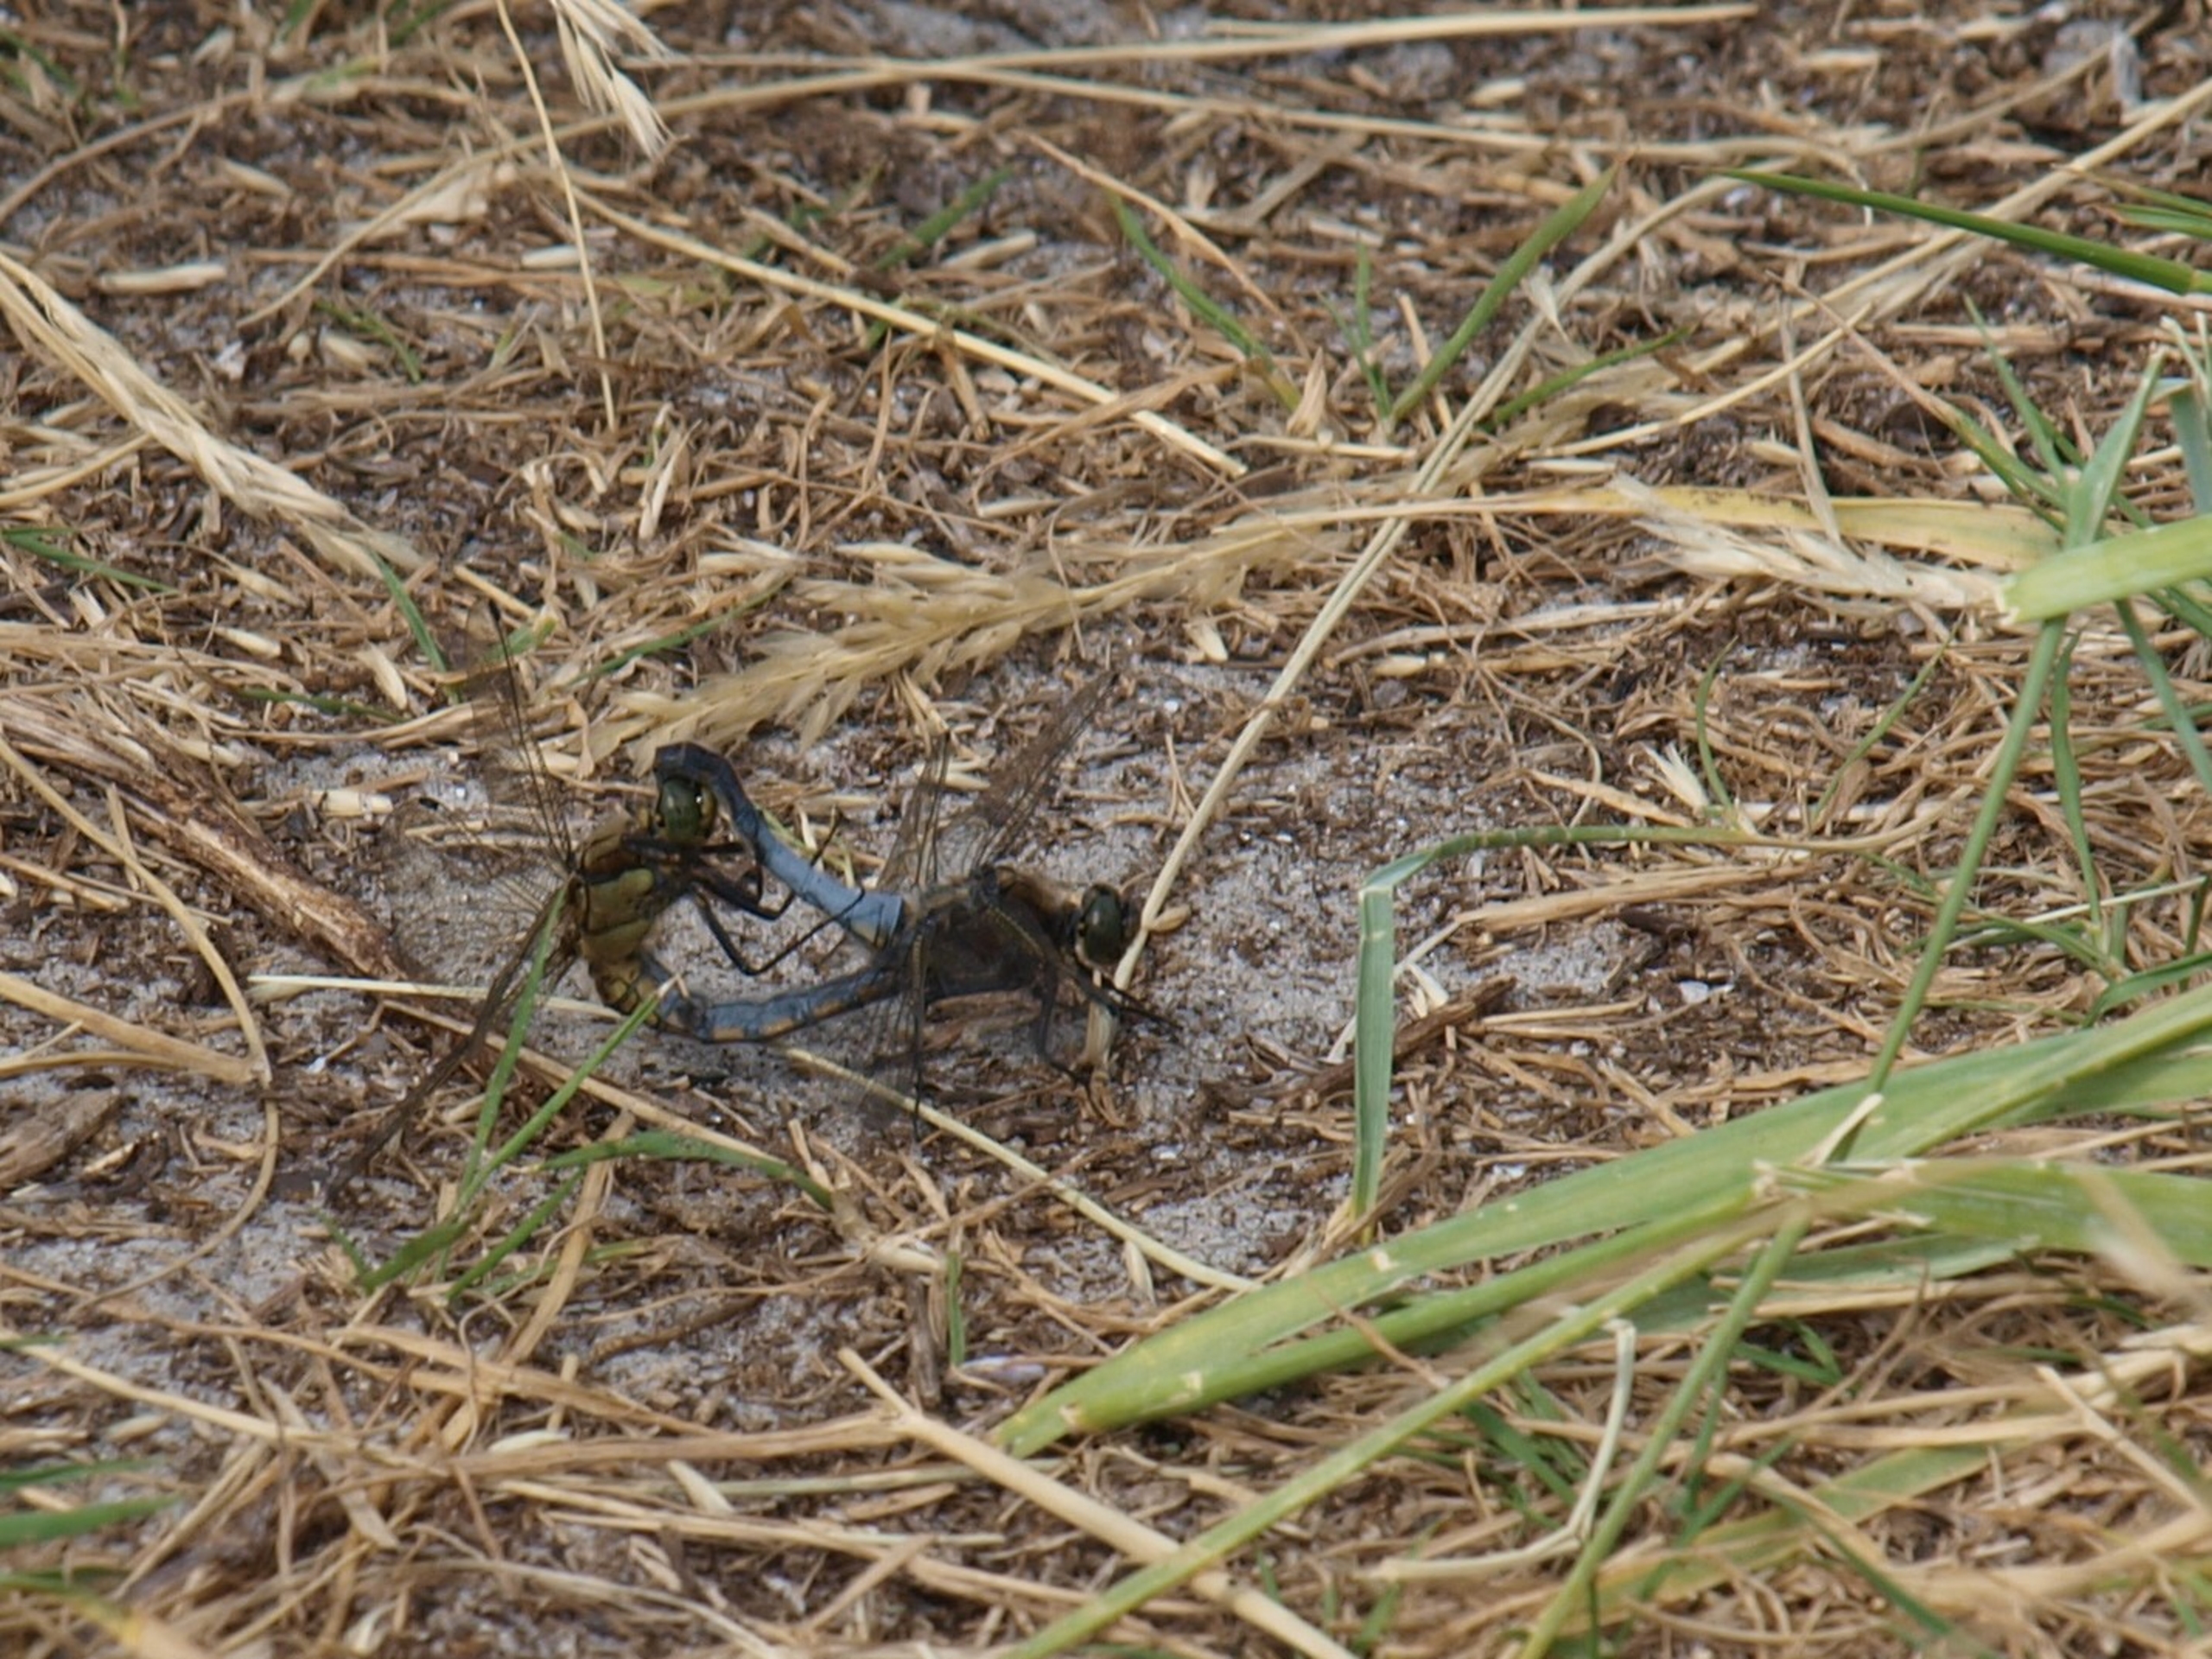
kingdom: Animalia
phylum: Arthropoda
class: Insecta
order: Odonata
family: Libellulidae
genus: Orthetrum
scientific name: Orthetrum cancellatum
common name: Stor blåpil
